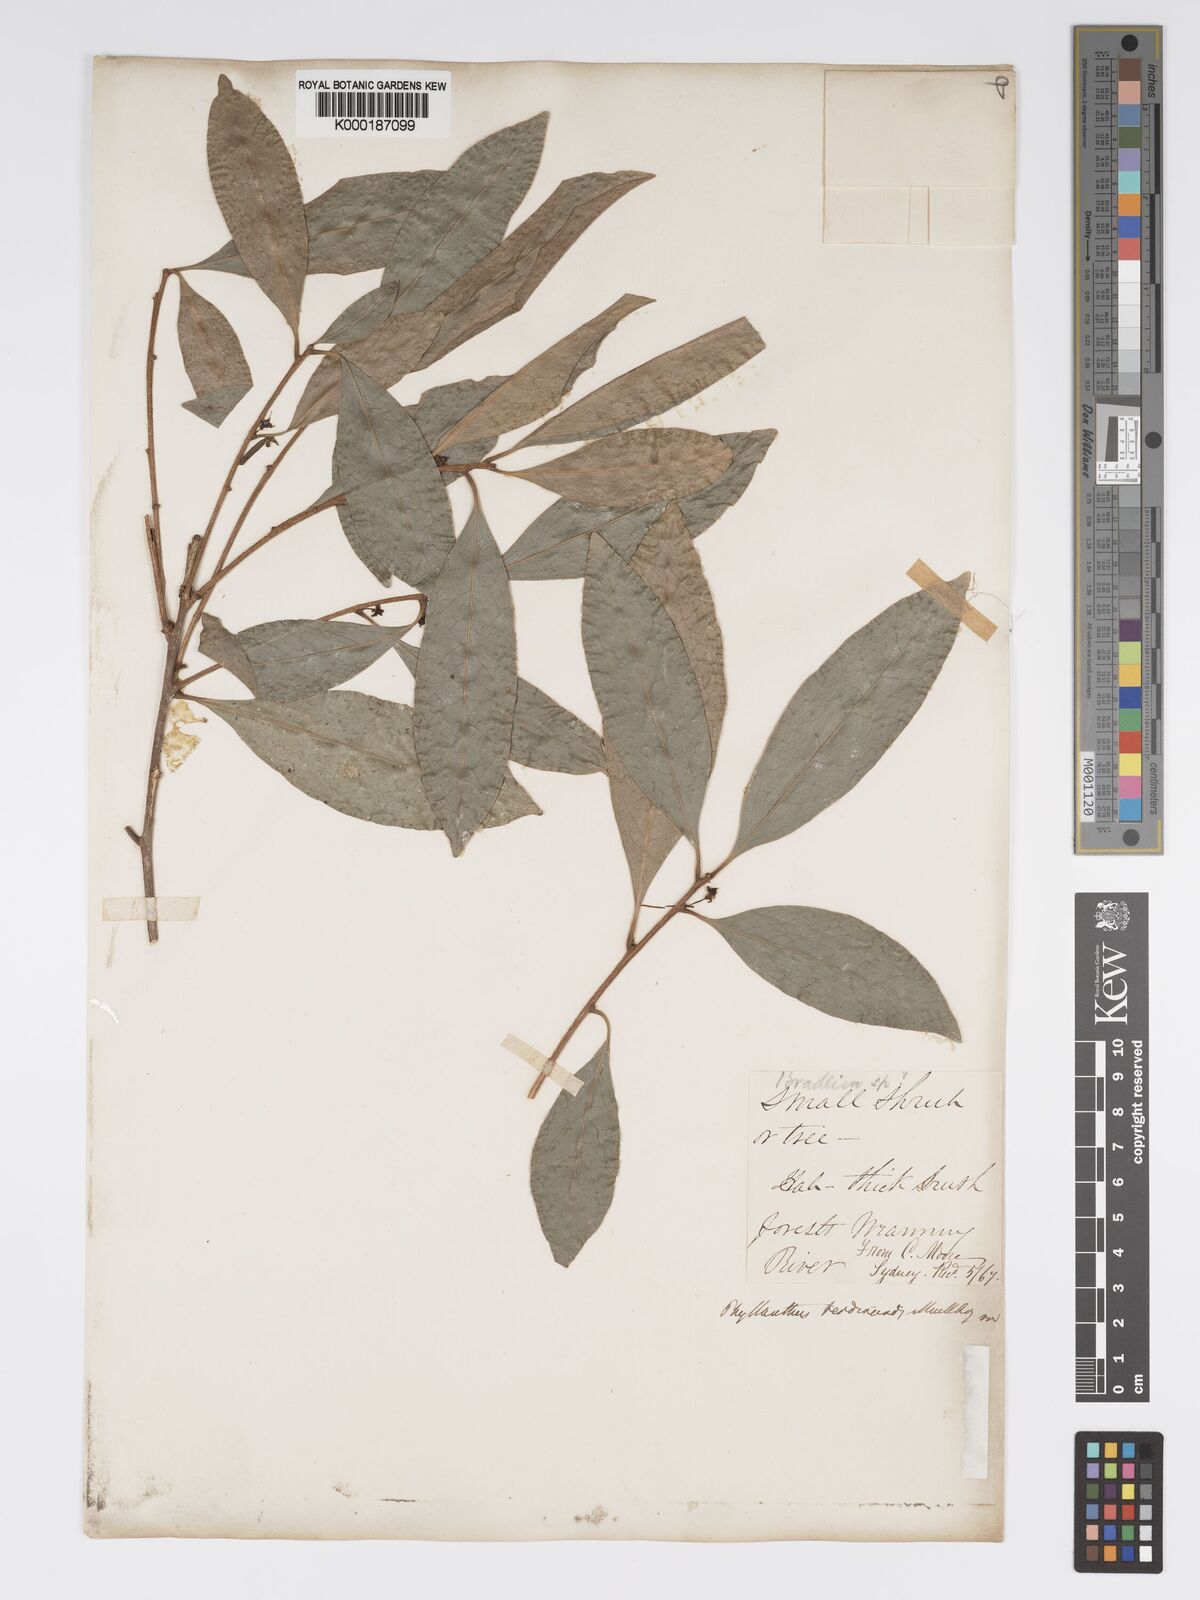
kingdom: Plantae
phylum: Tracheophyta
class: Magnoliopsida
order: Malpighiales
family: Phyllanthaceae
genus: Actephila
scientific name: Actephila lindleyi
